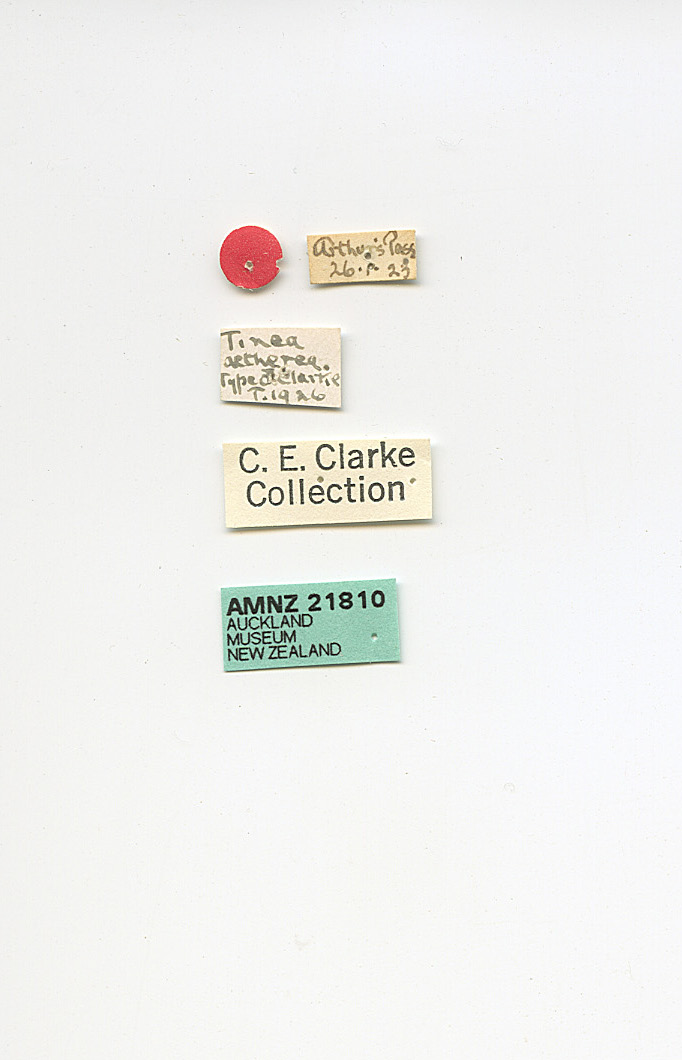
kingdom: Animalia
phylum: Arthropoda
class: Insecta
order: Lepidoptera
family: Tineidae
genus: Tinea
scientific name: Tinea aetherea
